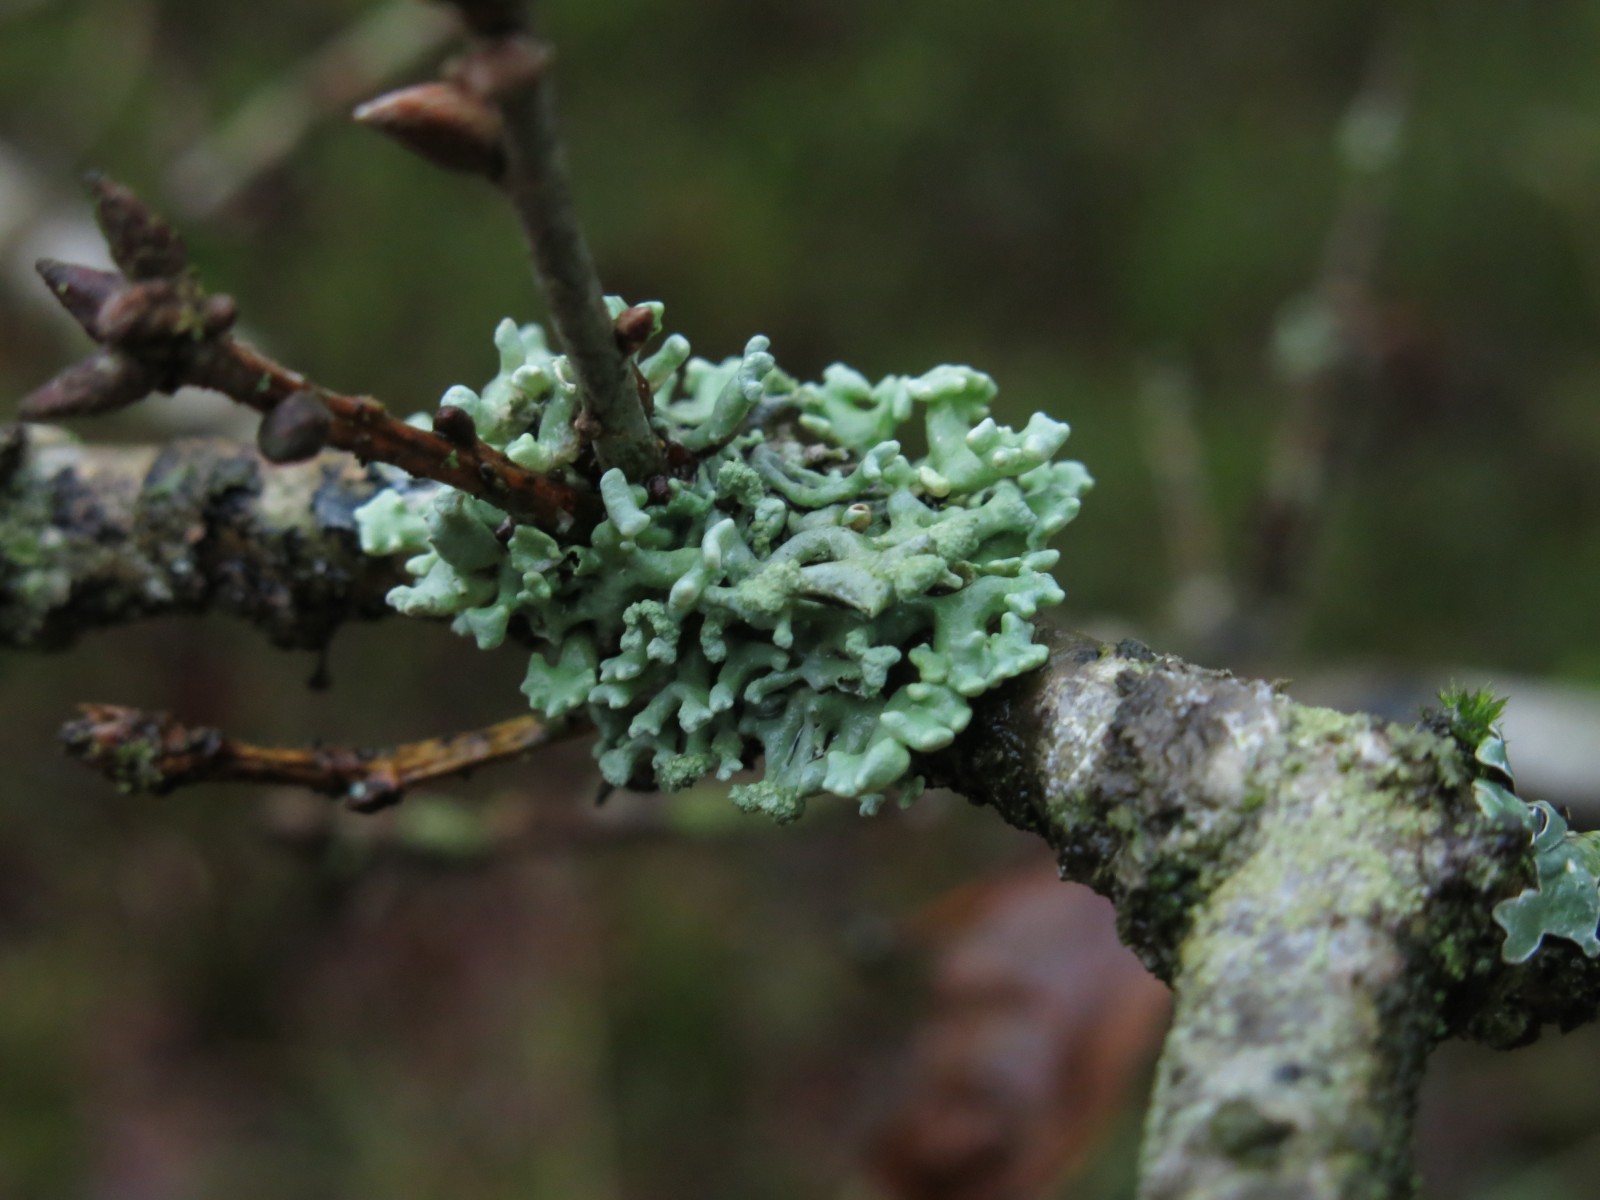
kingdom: Fungi
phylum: Ascomycota
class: Lecanoromycetes
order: Lecanorales
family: Parmeliaceae
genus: Hypogymnia
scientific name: Hypogymnia tubulosa
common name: finger-kvistlav
